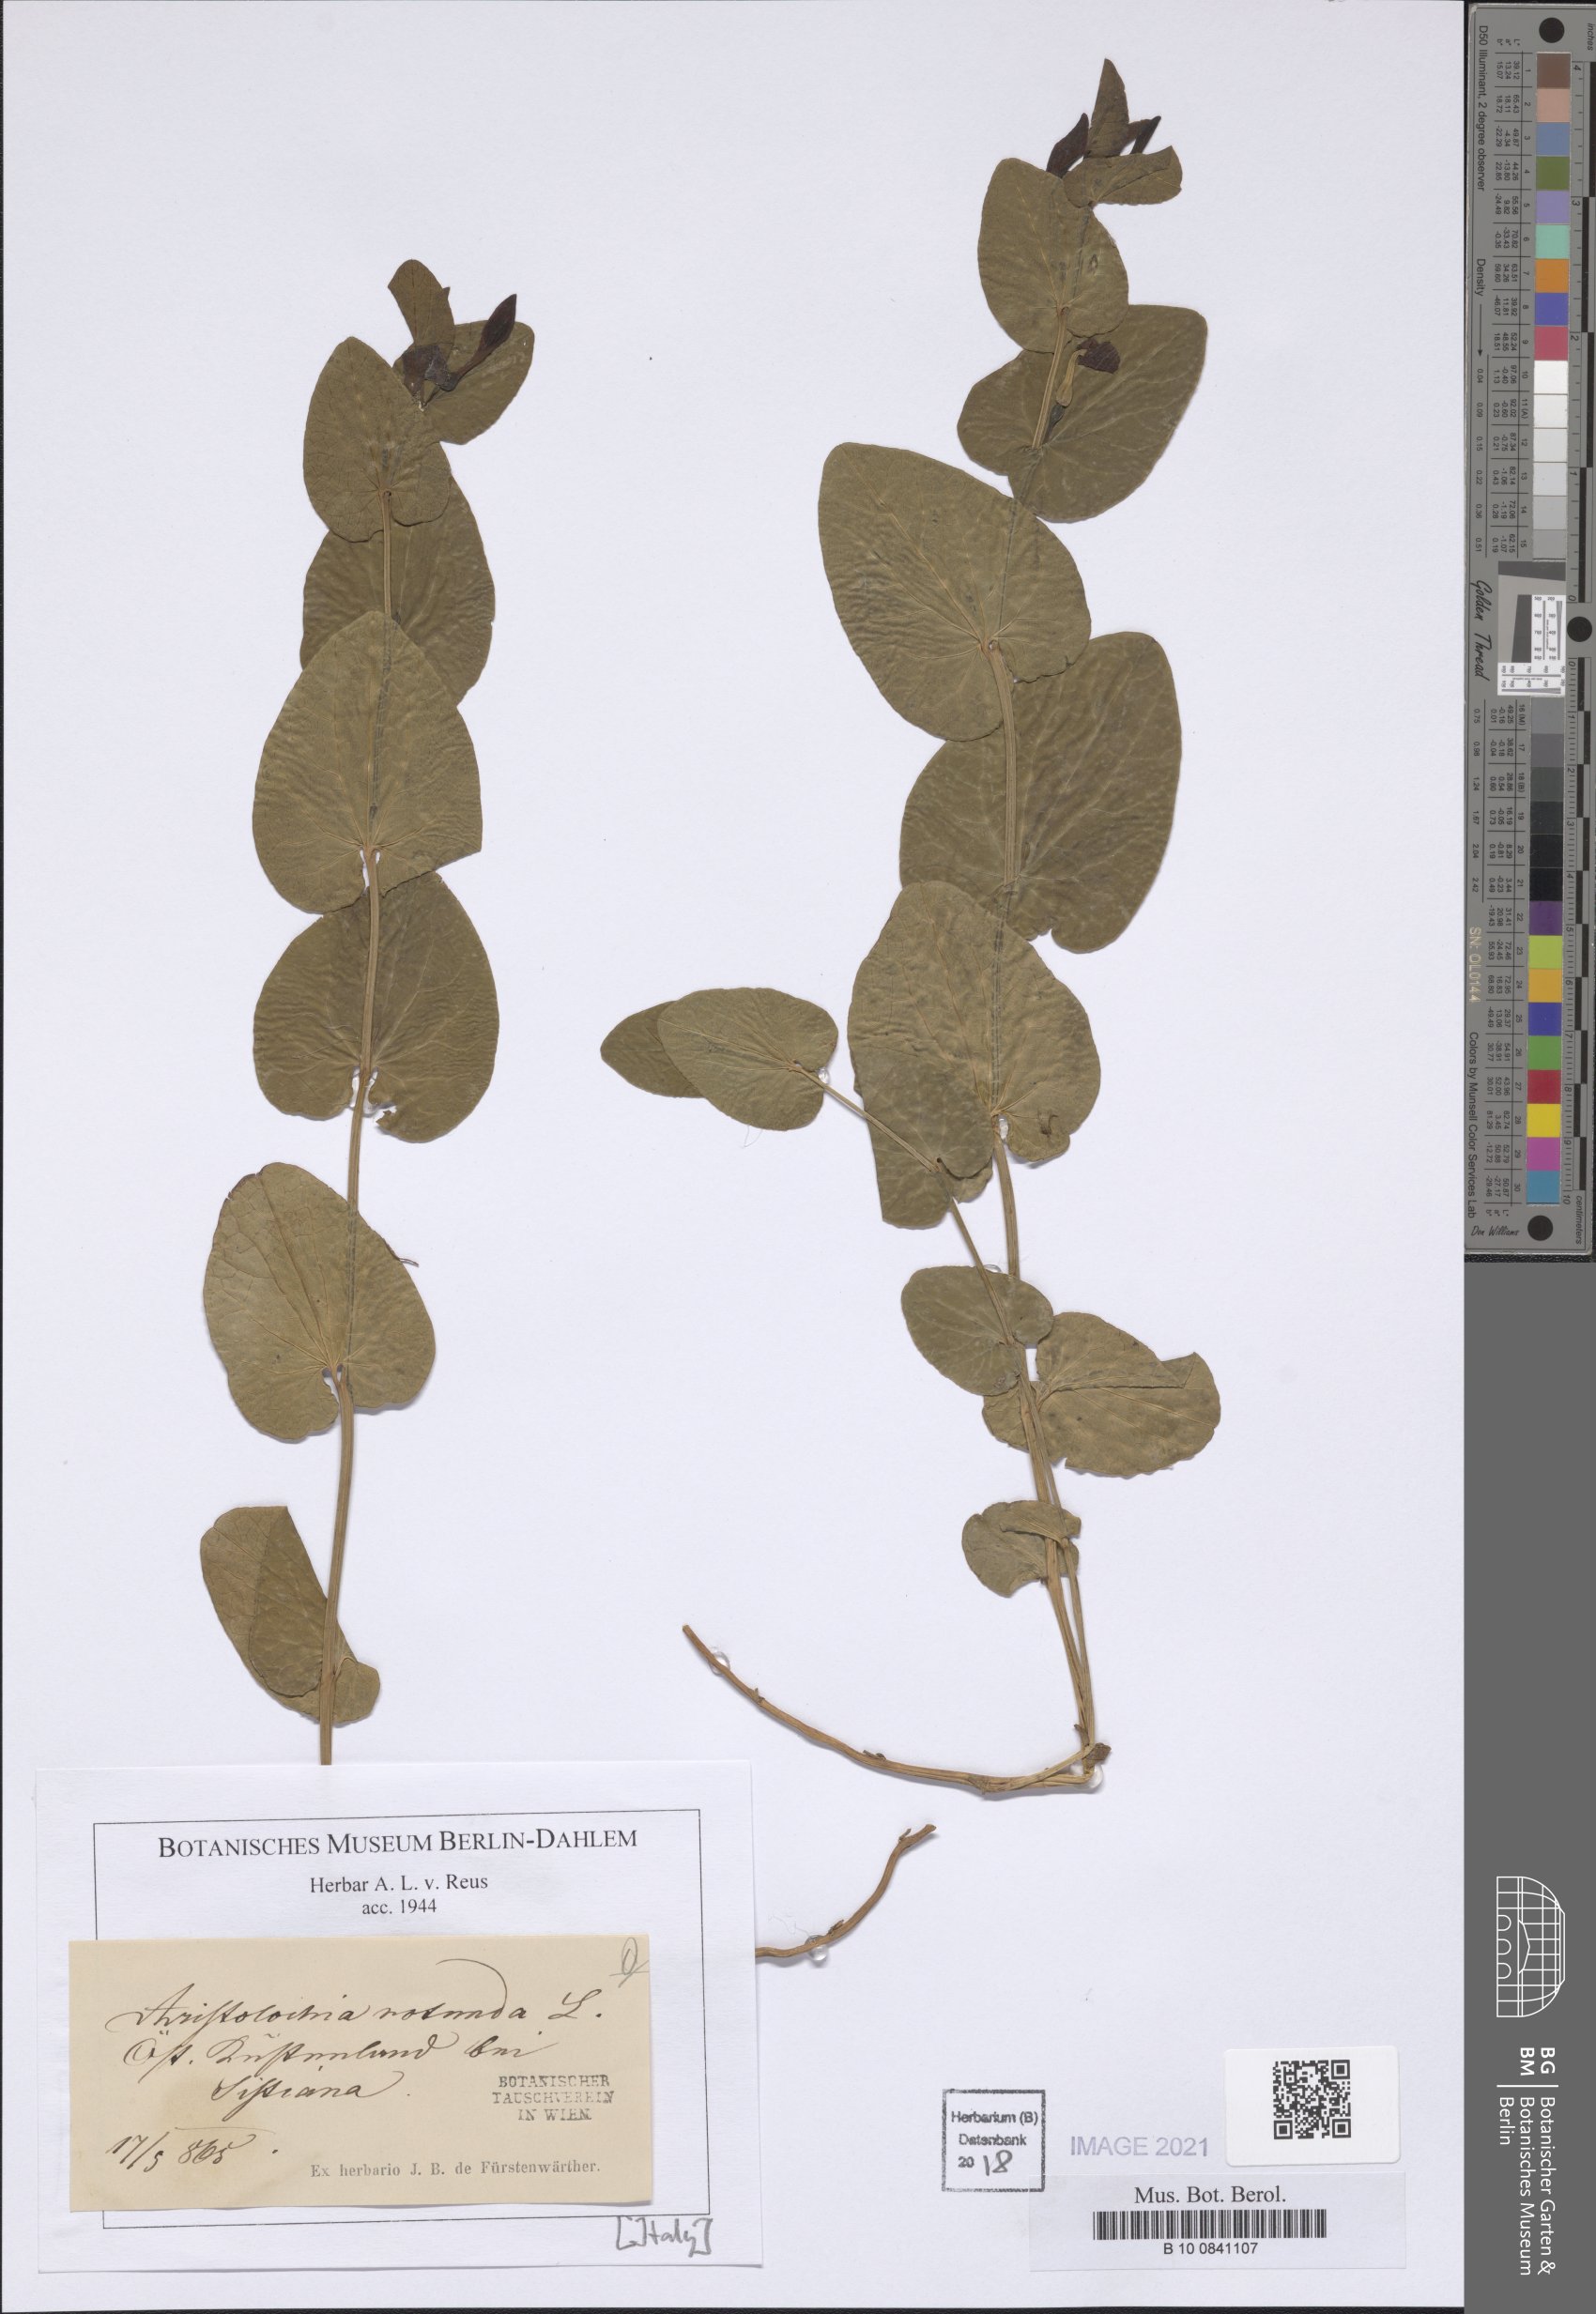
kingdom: Plantae
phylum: Tracheophyta
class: Magnoliopsida
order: Piperales
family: Aristolochiaceae
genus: Aristolochia
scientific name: Aristolochia rotunda
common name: Smearwort
